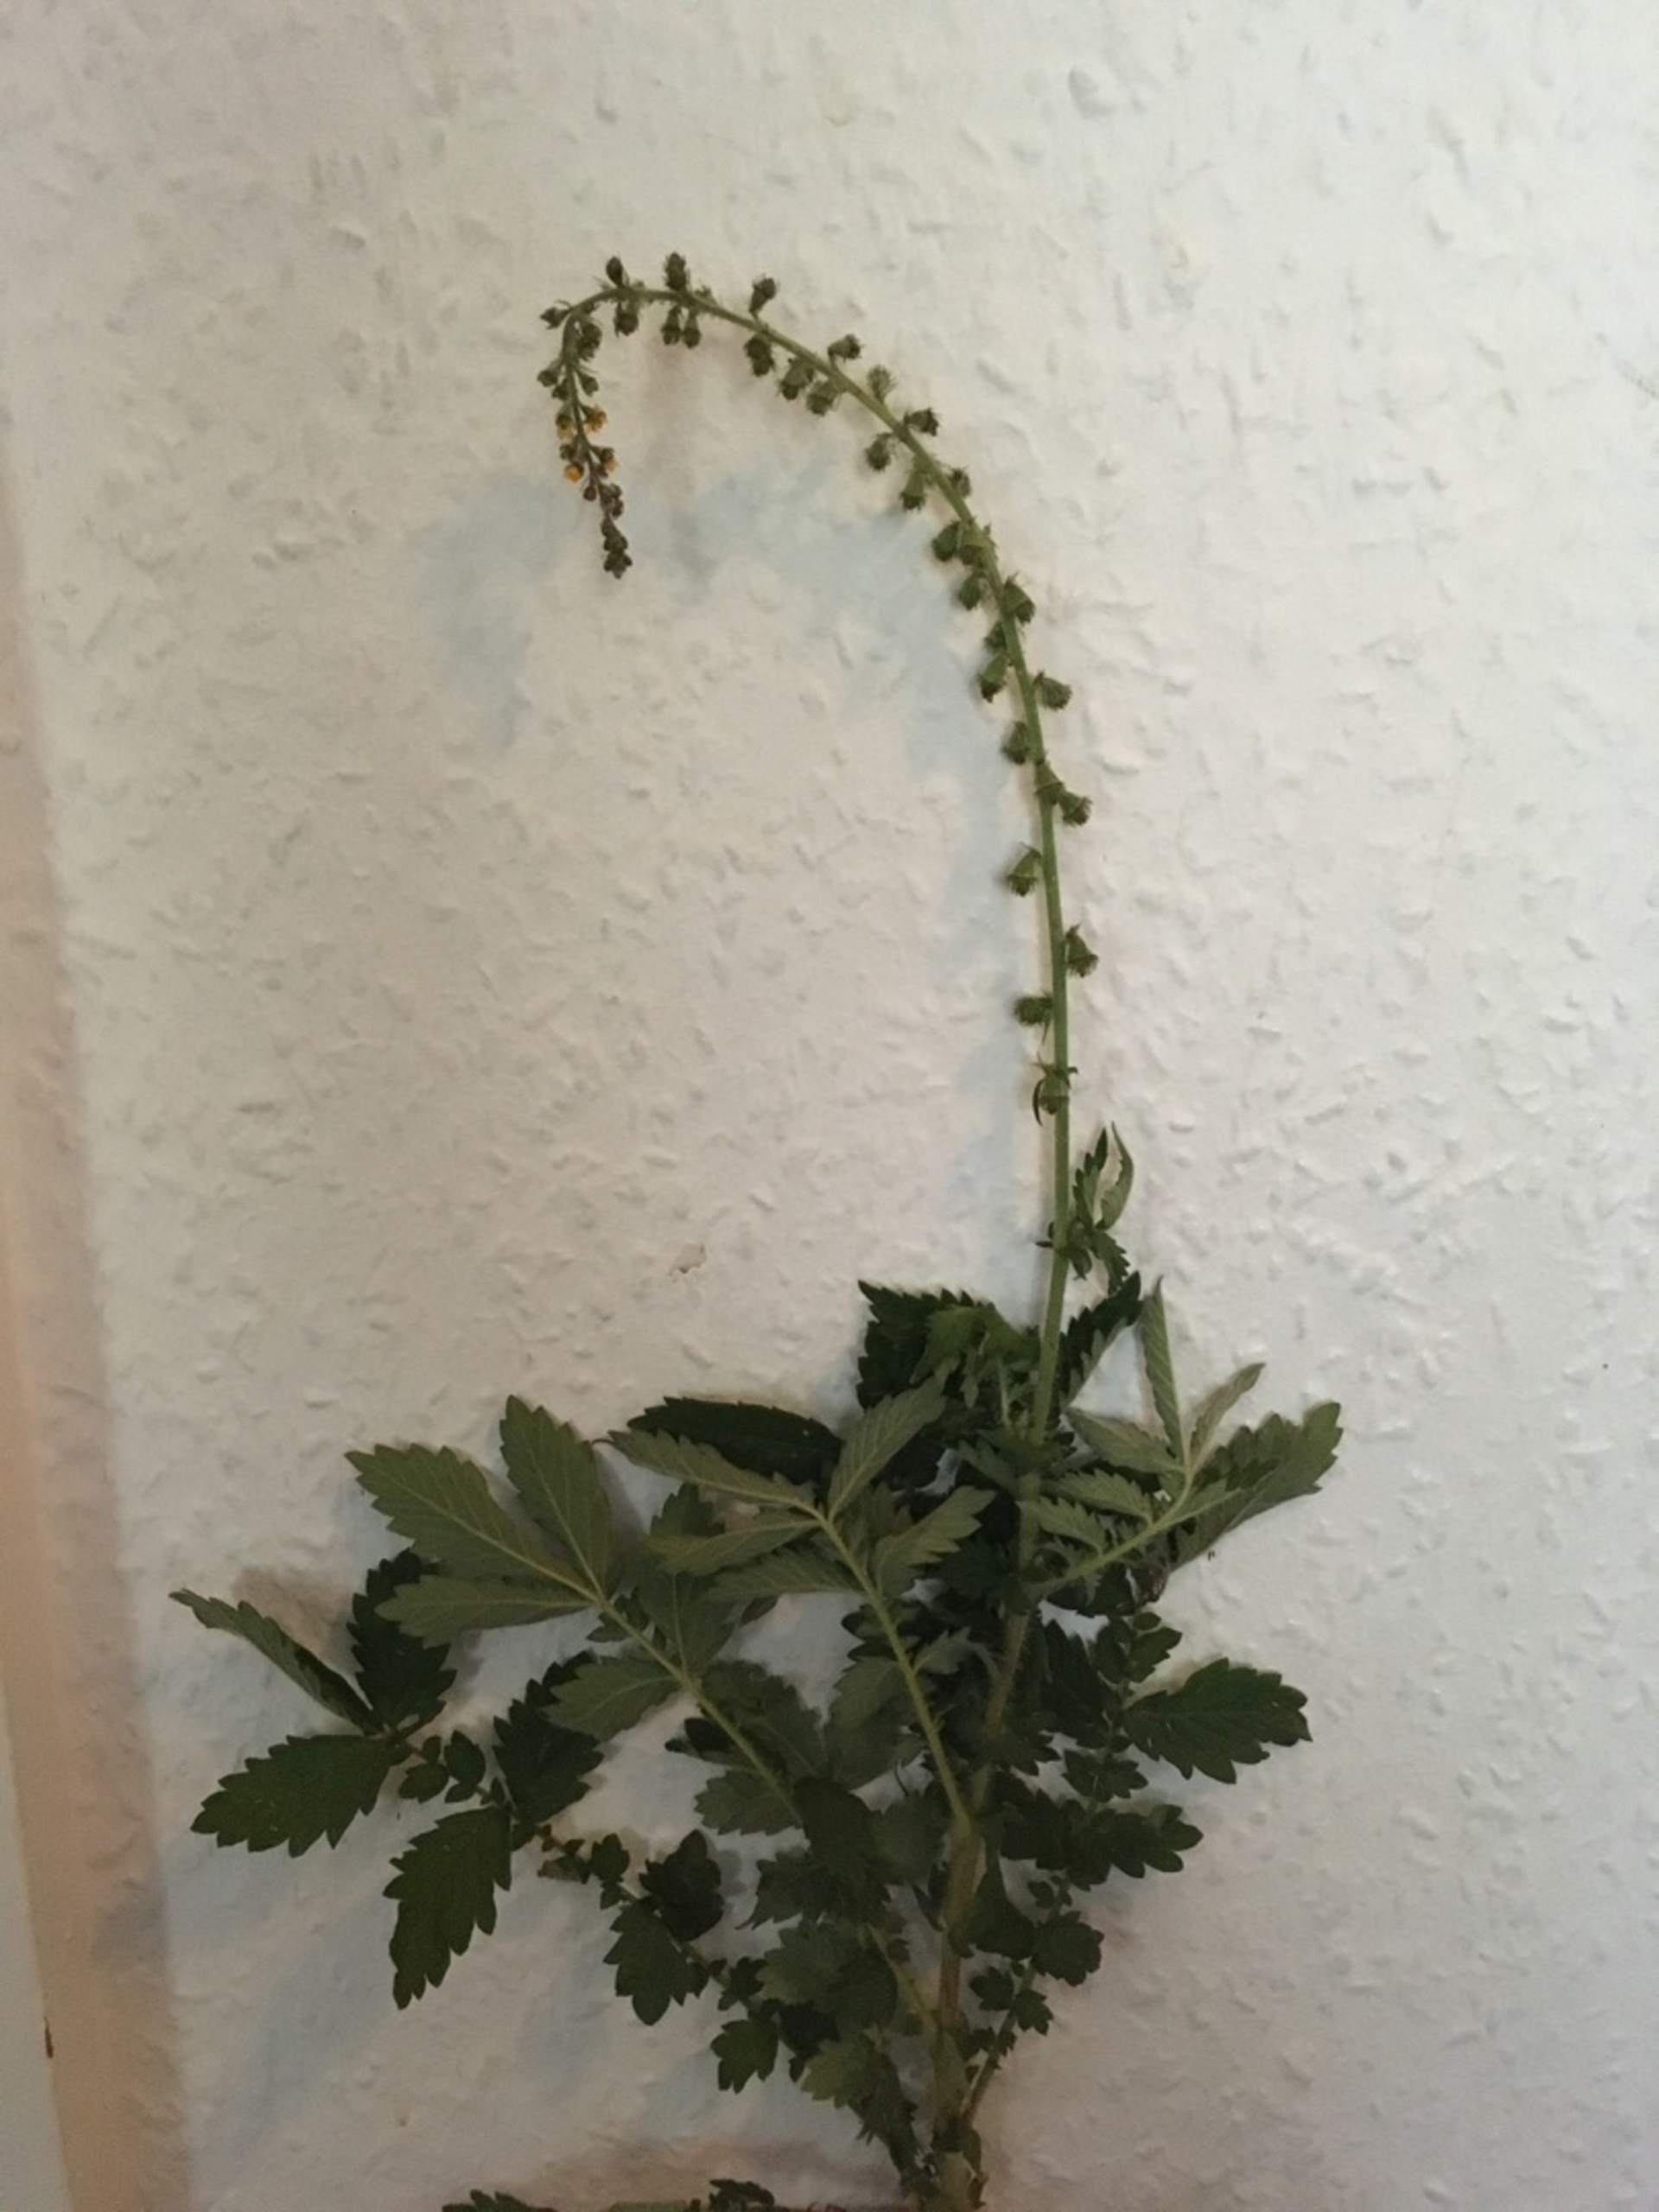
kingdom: Plantae
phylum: Tracheophyta
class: Magnoliopsida
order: Rosales
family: Rosaceae
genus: Agrimonia
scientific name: Agrimonia eupatoria
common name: Almindelig agermåne
